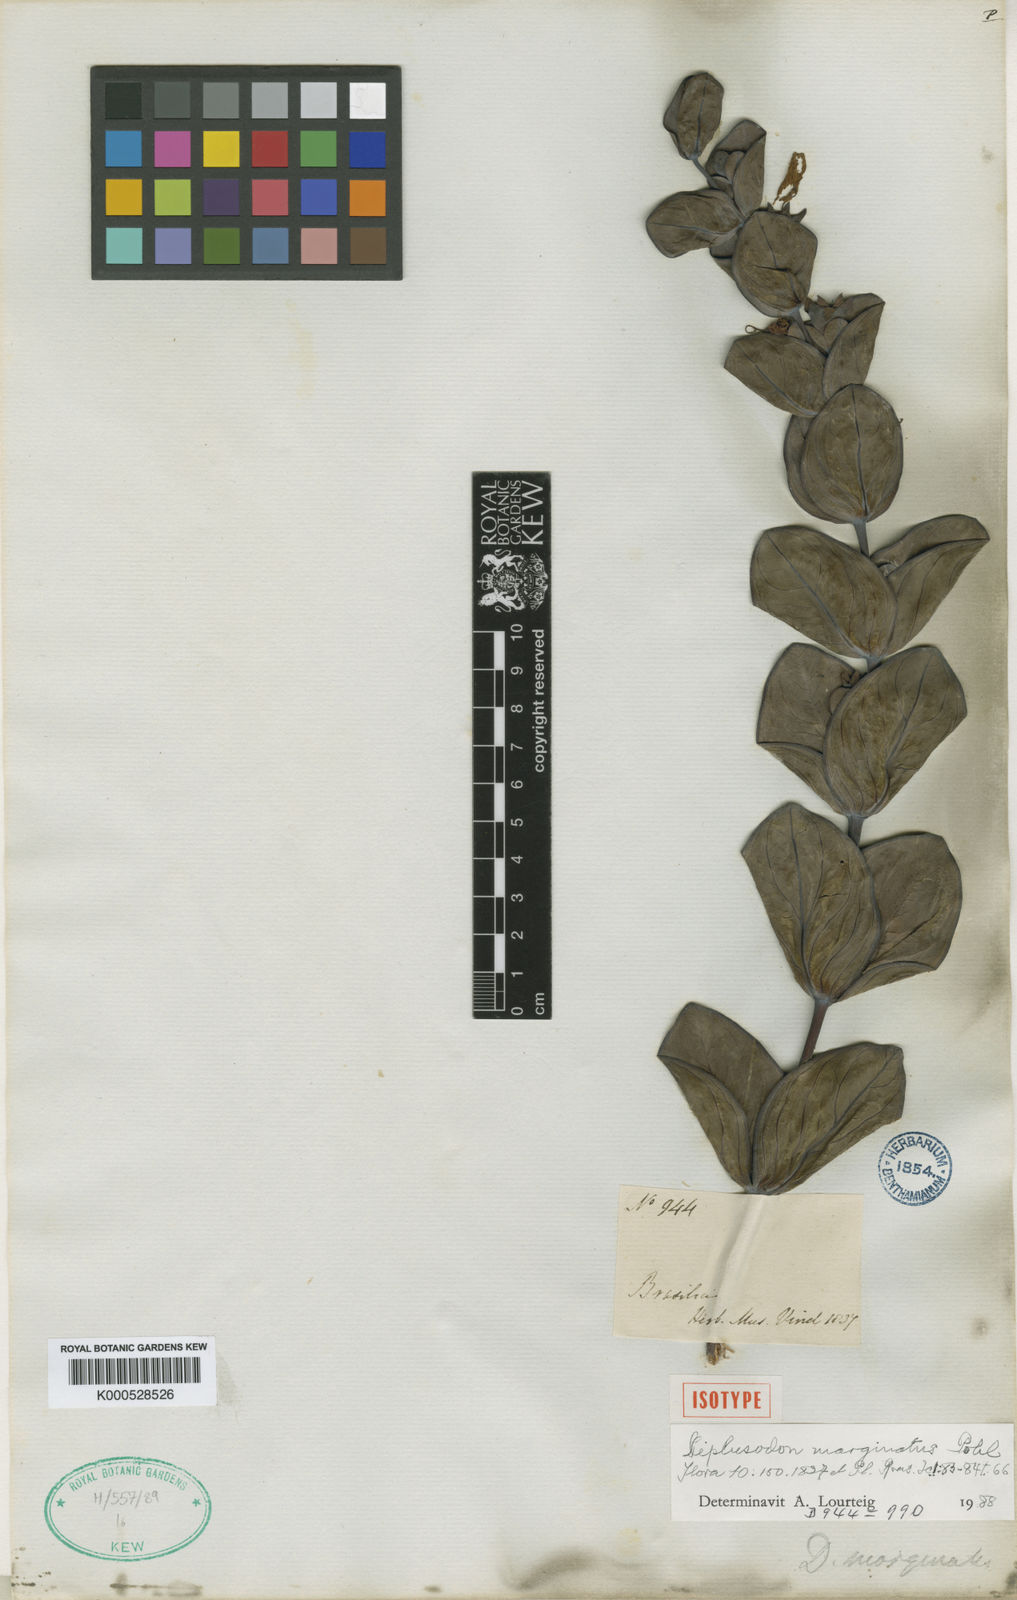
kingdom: Plantae
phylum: Tracheophyta
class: Magnoliopsida
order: Myrtales
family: Lythraceae
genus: Diplusodon
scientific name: Diplusodon marginatus
